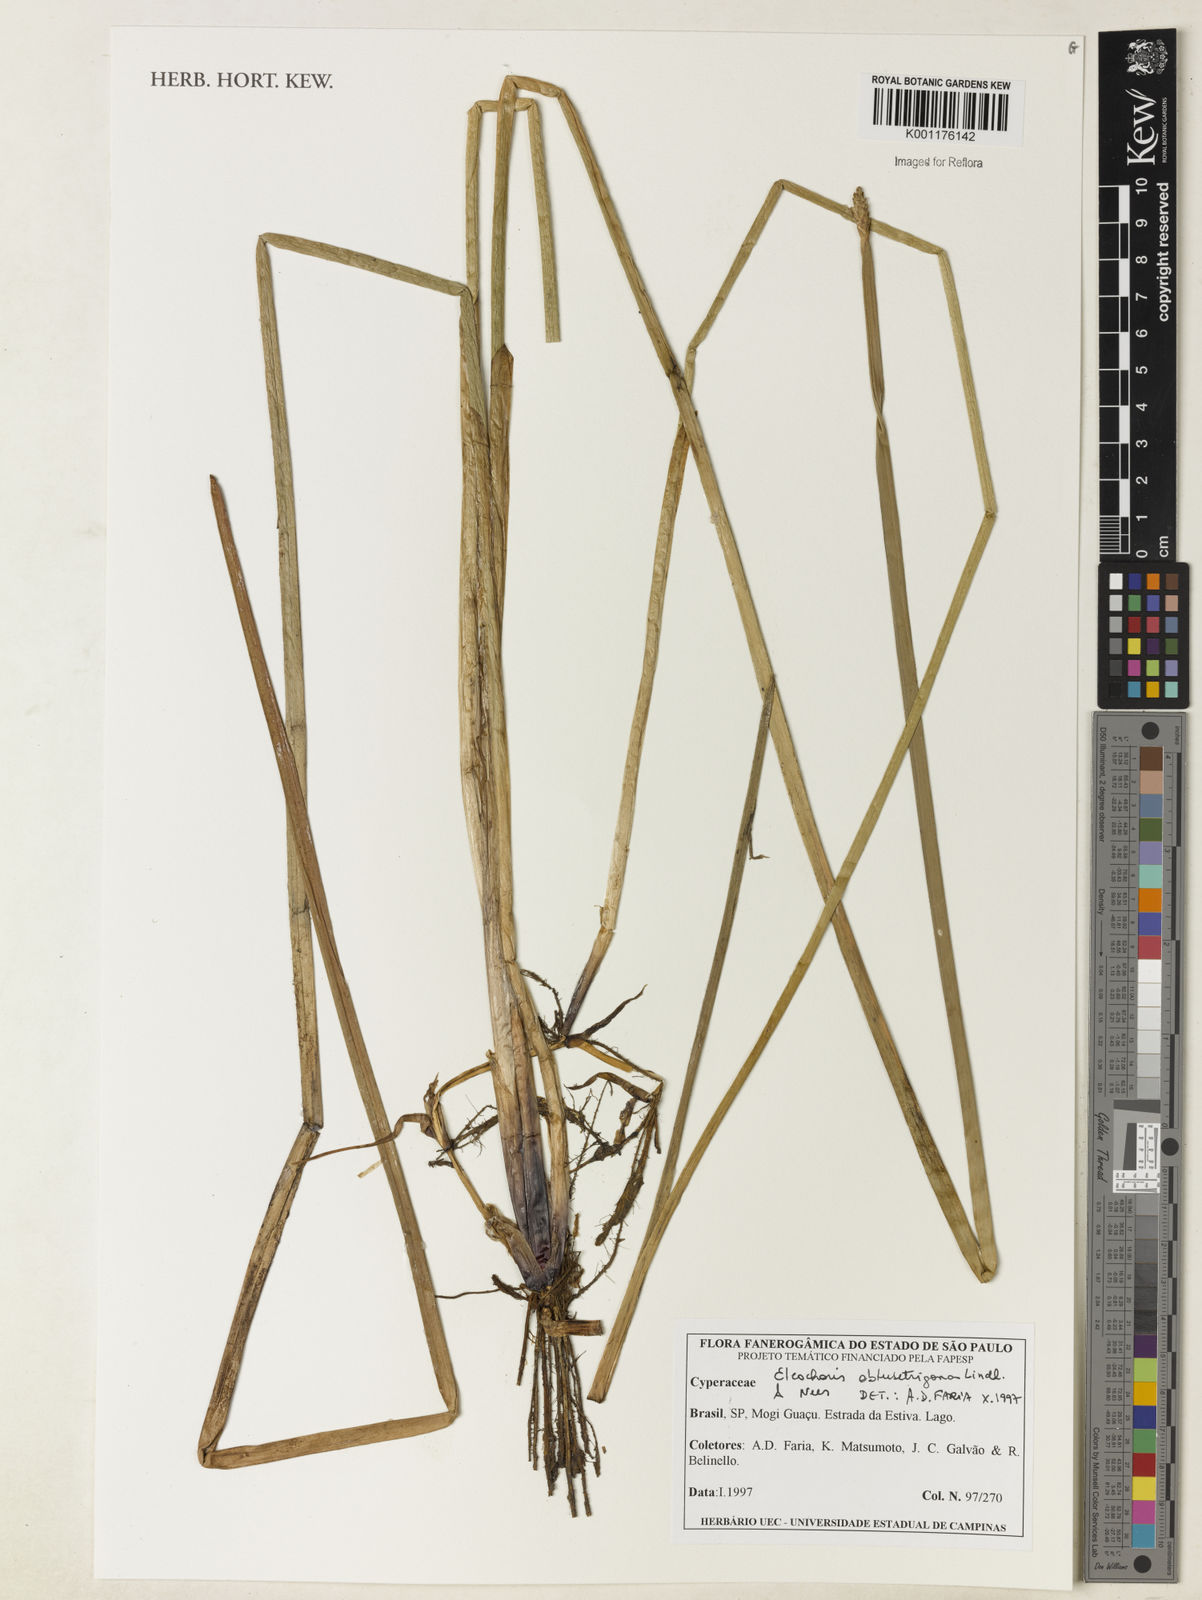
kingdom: Plantae
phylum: Tracheophyta
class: Liliopsida
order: Poales
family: Cyperaceae
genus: Eleocharis
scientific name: Eleocharis acutangula
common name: Acute spikerush
